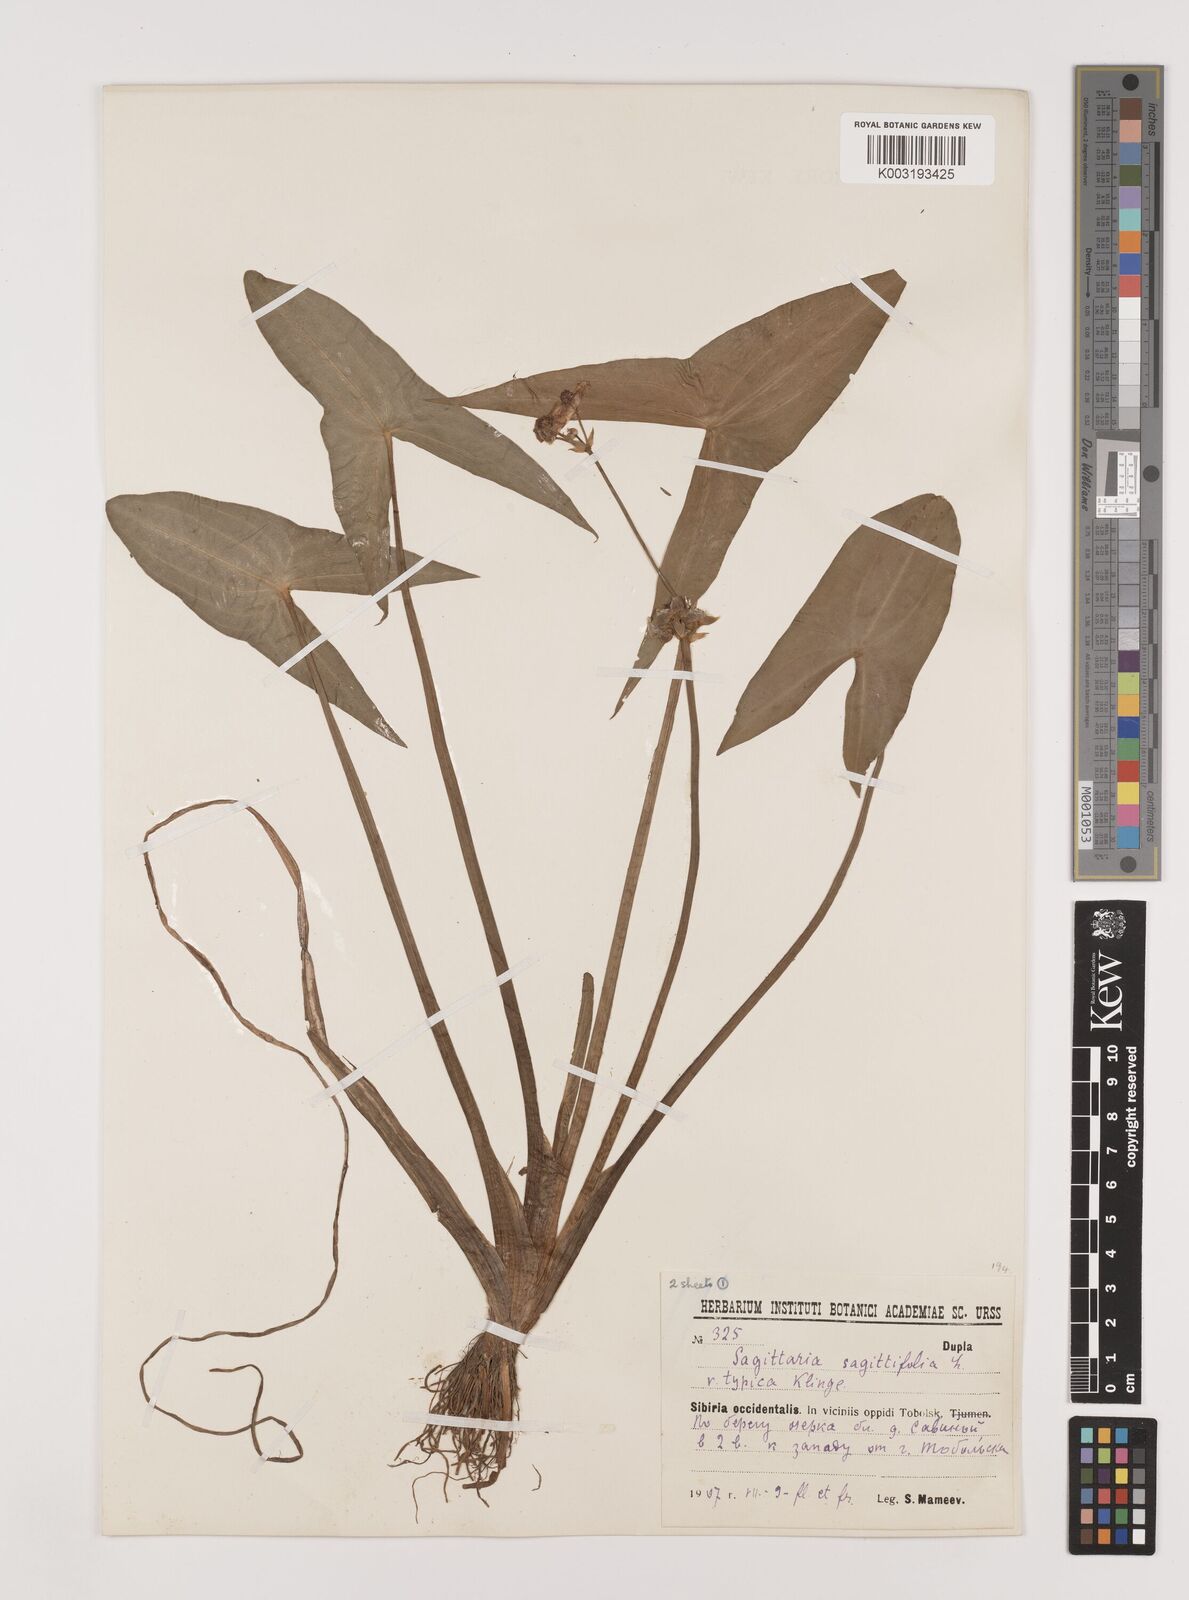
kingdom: Plantae
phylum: Tracheophyta
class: Liliopsida
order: Alismatales
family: Alismataceae
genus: Sagittaria
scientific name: Sagittaria sagittifolia
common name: Arrowhead
